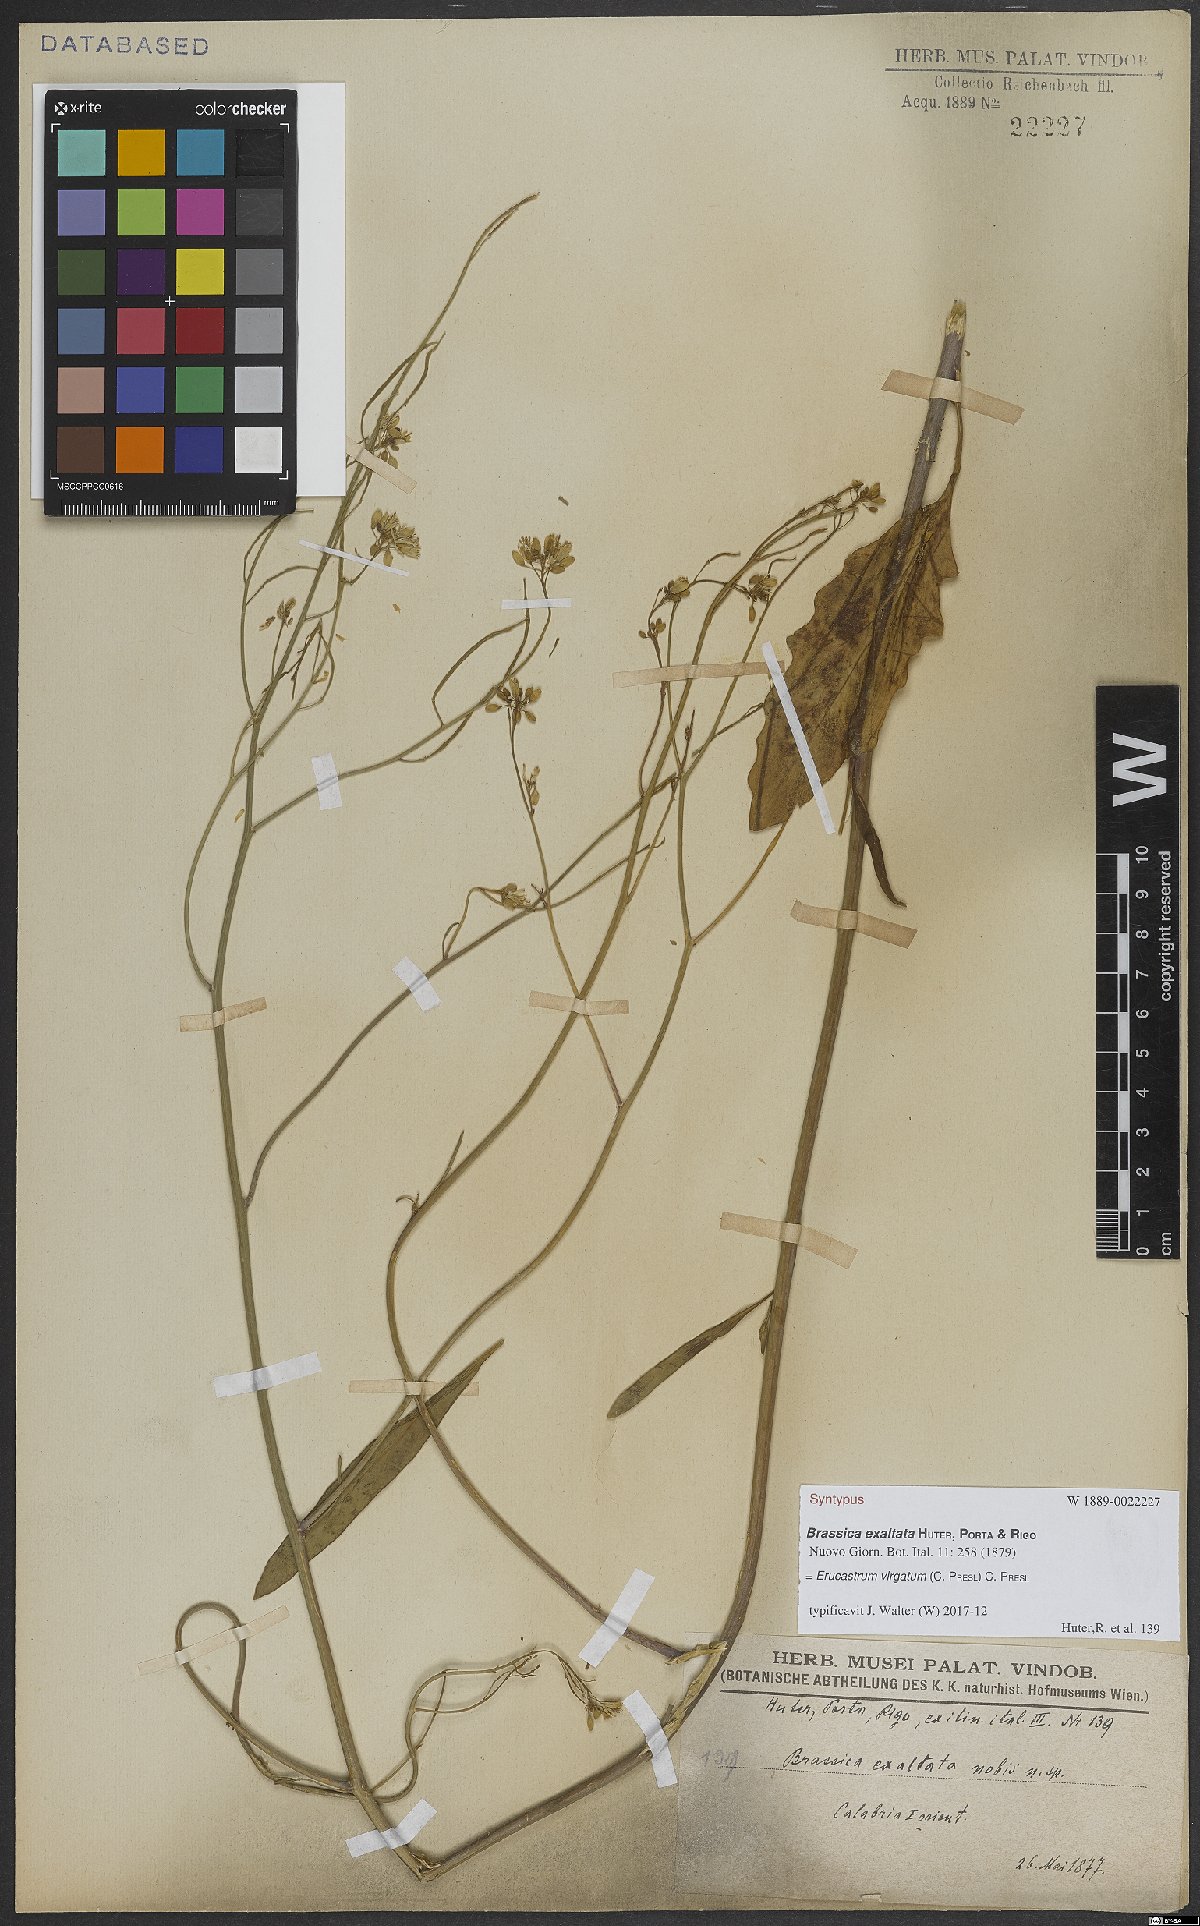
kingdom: Plantae
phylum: Tracheophyta
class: Magnoliopsida
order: Brassicales
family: Brassicaceae
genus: Erucastrum
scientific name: Erucastrum virgatum
